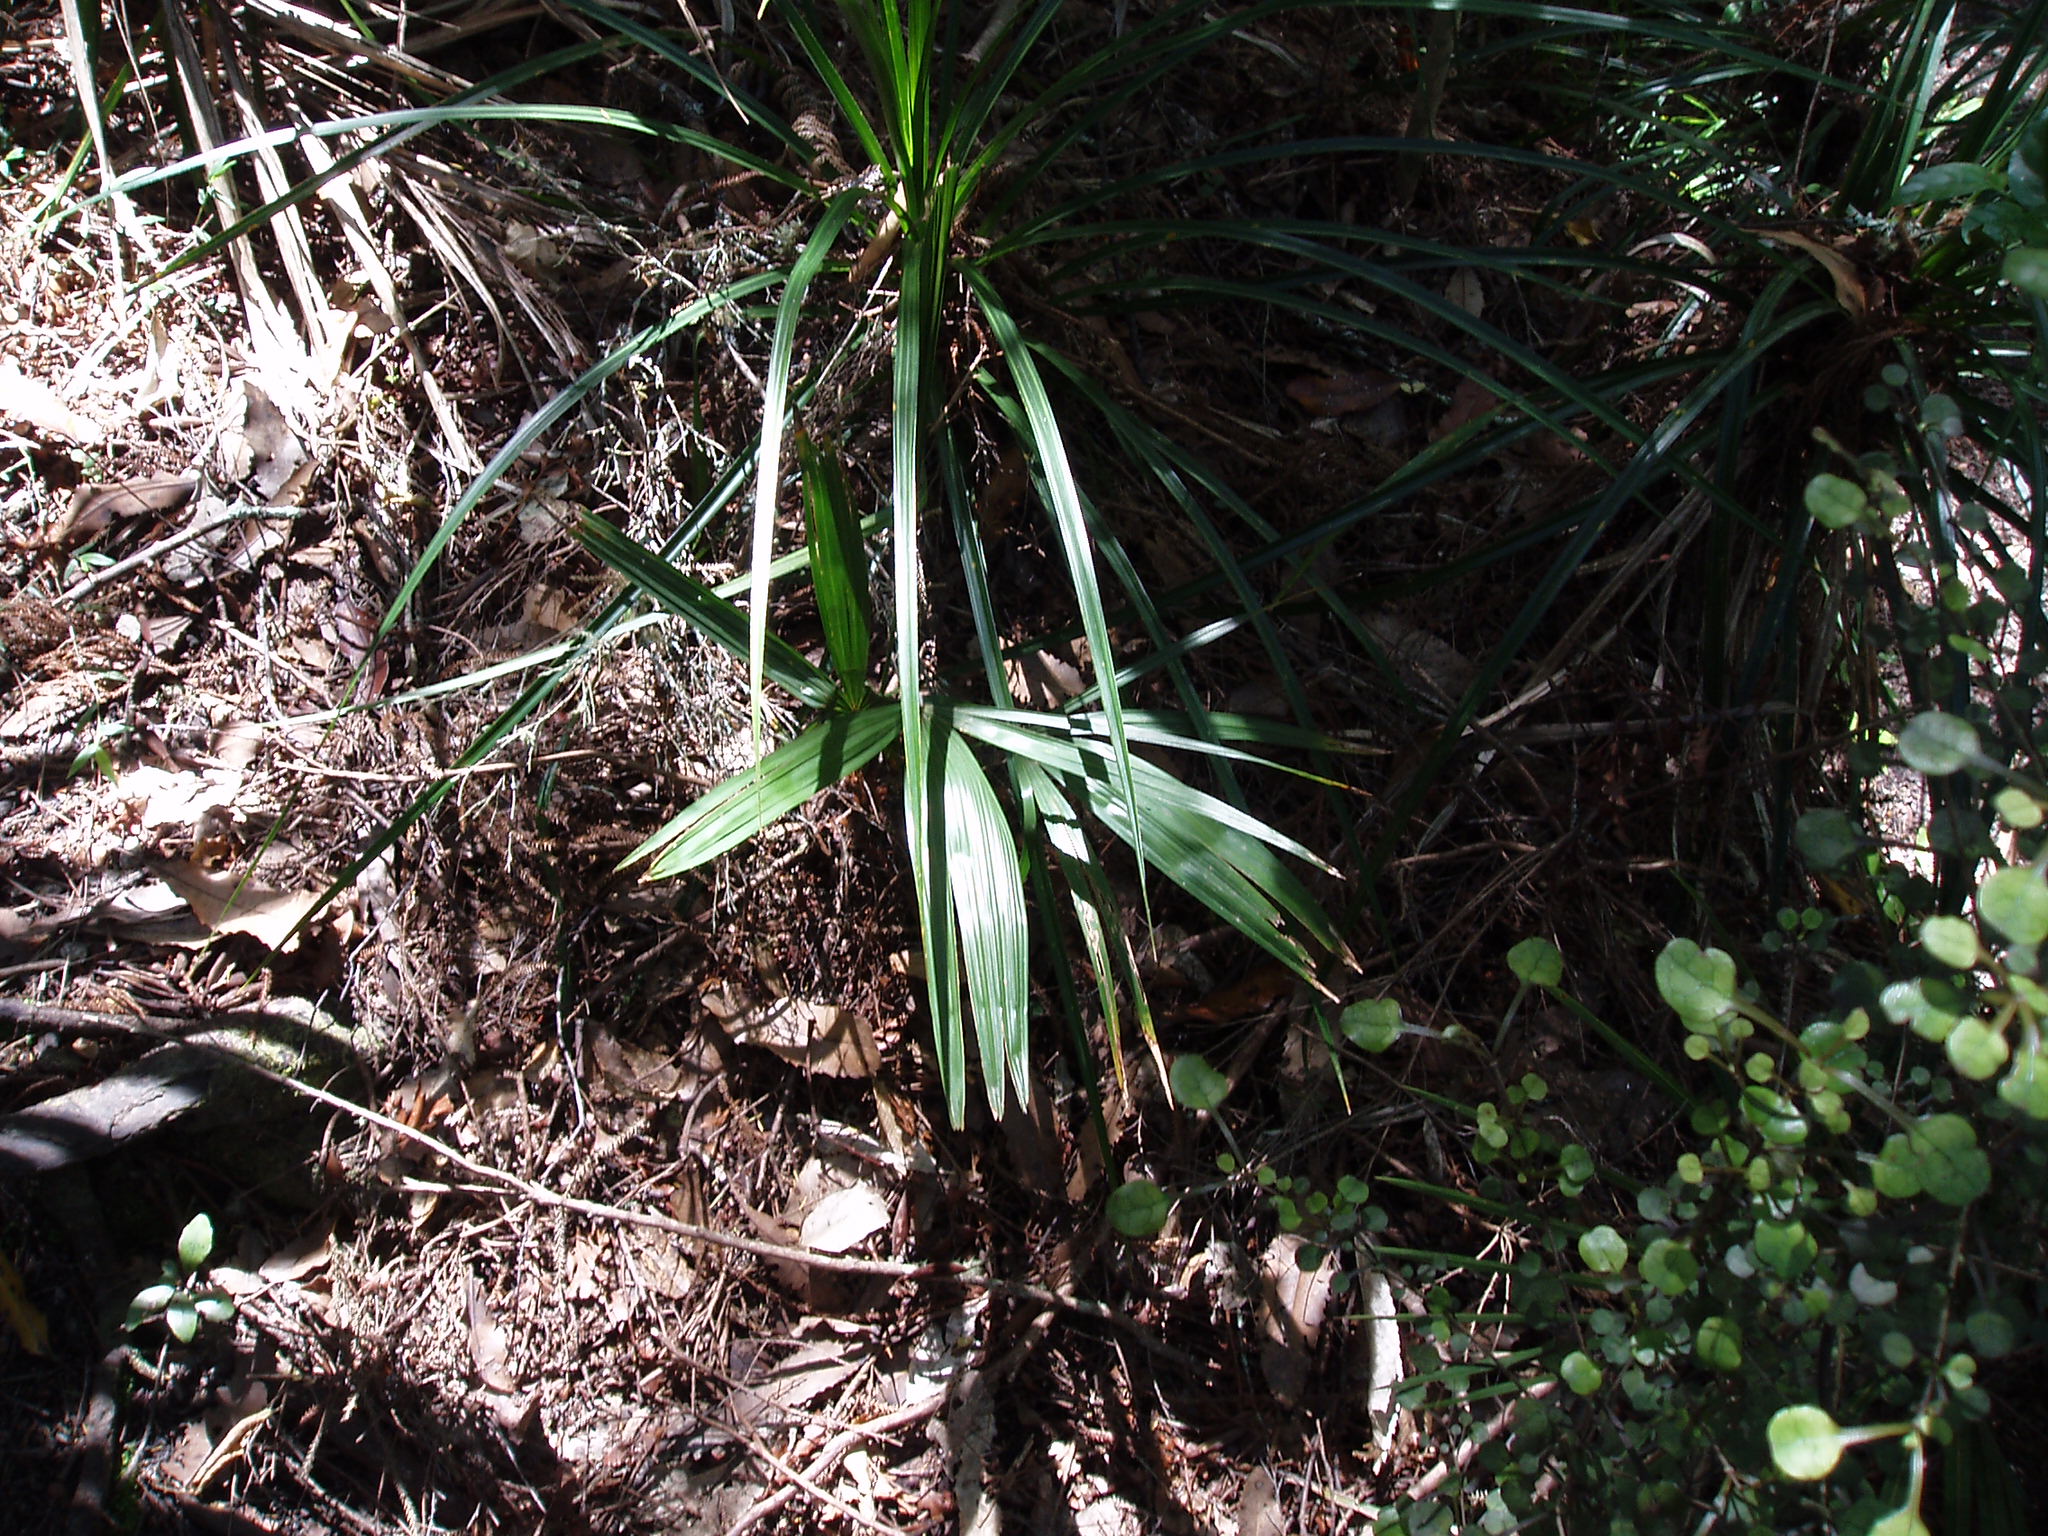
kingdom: Plantae
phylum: Tracheophyta
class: Liliopsida
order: Arecales
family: Arecaceae
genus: Trachycarpus
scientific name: Trachycarpus fortunei
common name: Chusan palm
